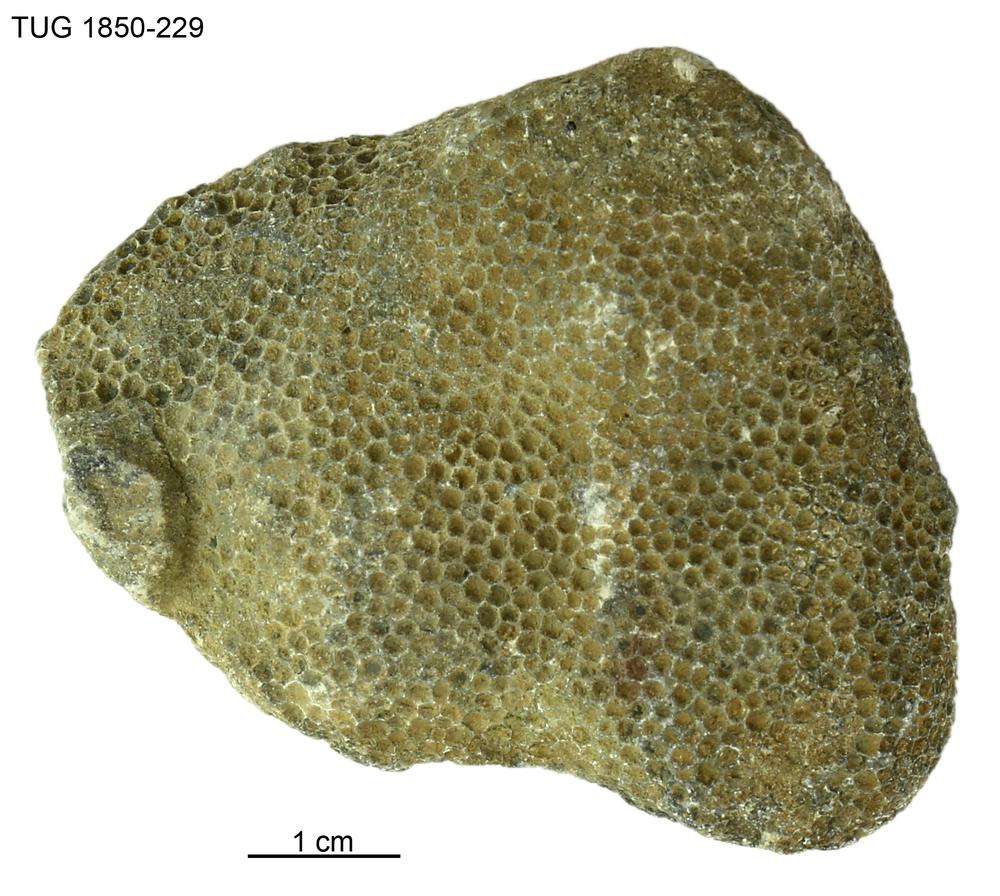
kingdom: Animalia
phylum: Cnidaria
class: Anthozoa
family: Favositidae
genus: Favosites
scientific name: Favosites
